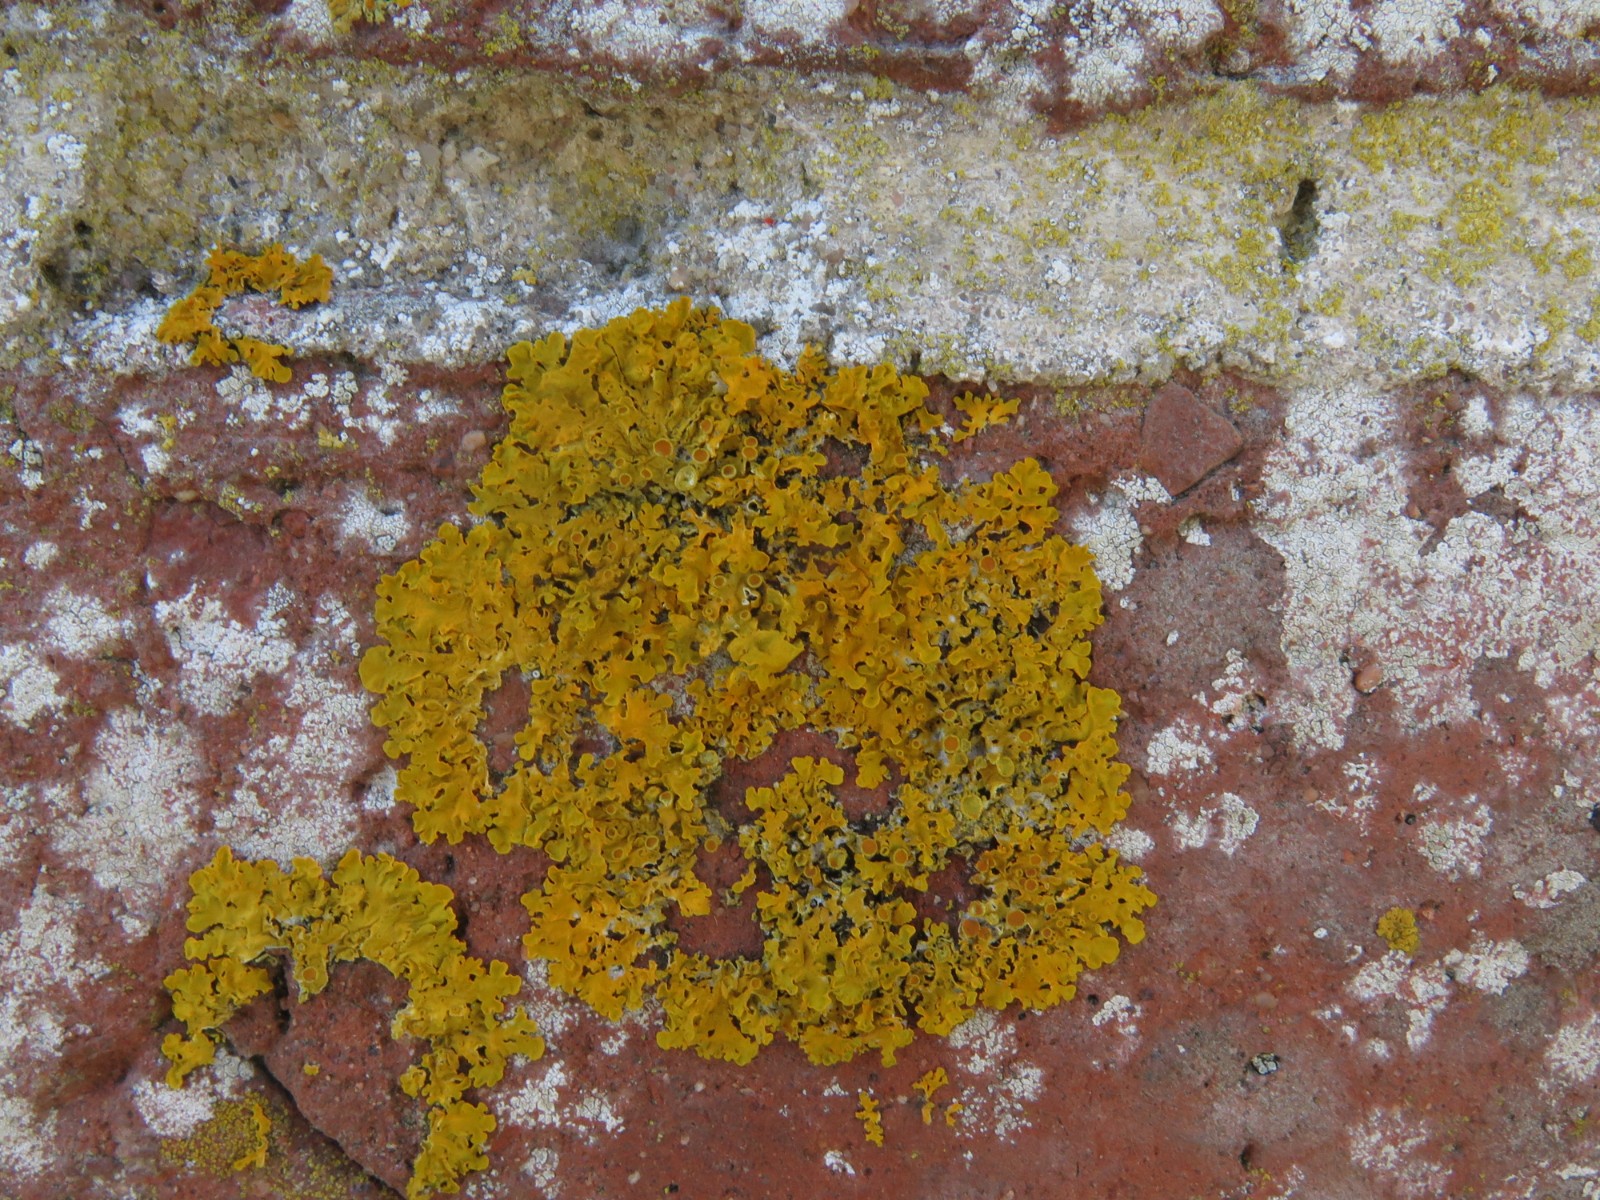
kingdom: Fungi
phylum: Ascomycota
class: Lecanoromycetes
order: Teloschistales
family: Teloschistaceae
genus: Xanthoria
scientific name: Xanthoria parietina
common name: almindelig væggelav
